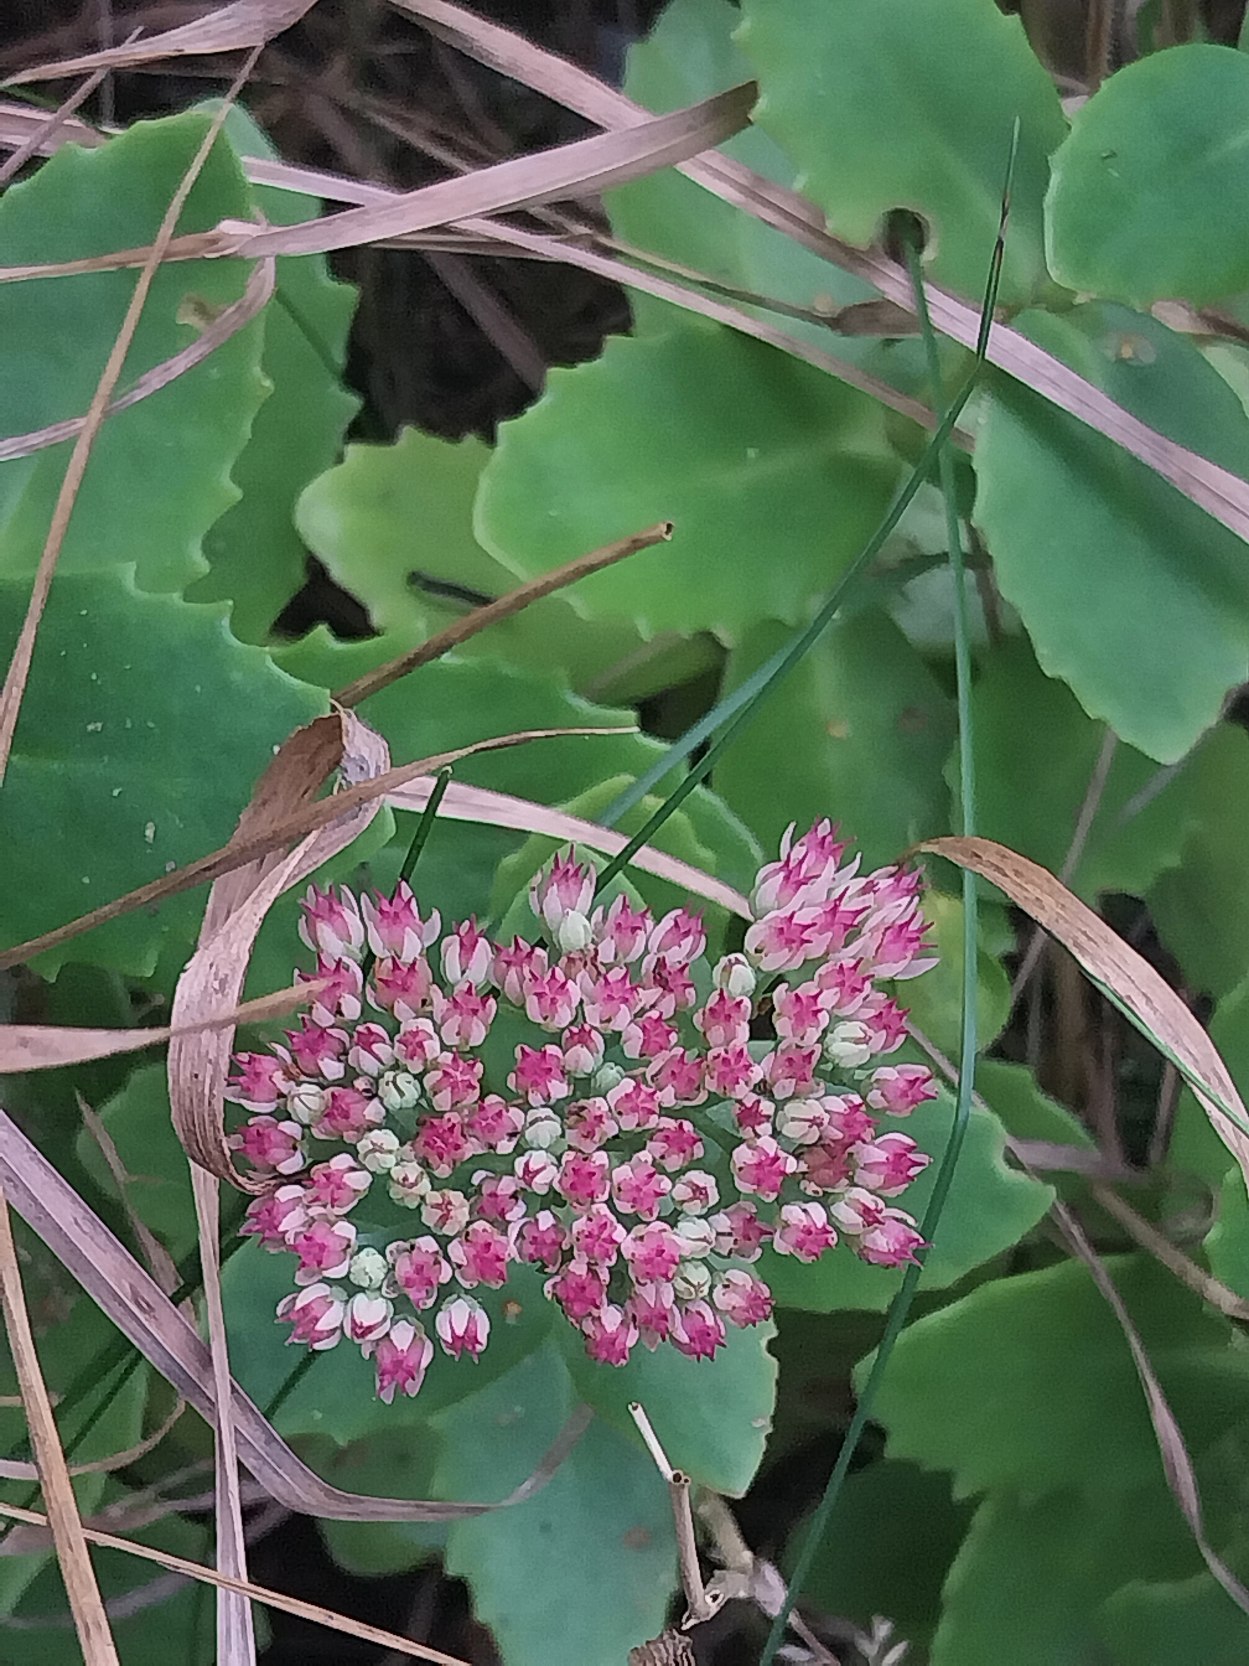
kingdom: Plantae
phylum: Tracheophyta
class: Magnoliopsida
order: Saxifragales
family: Crassulaceae
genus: Hylotelephium
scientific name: Hylotelephium
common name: Kinesisk sankthansurt × sankthansurt
